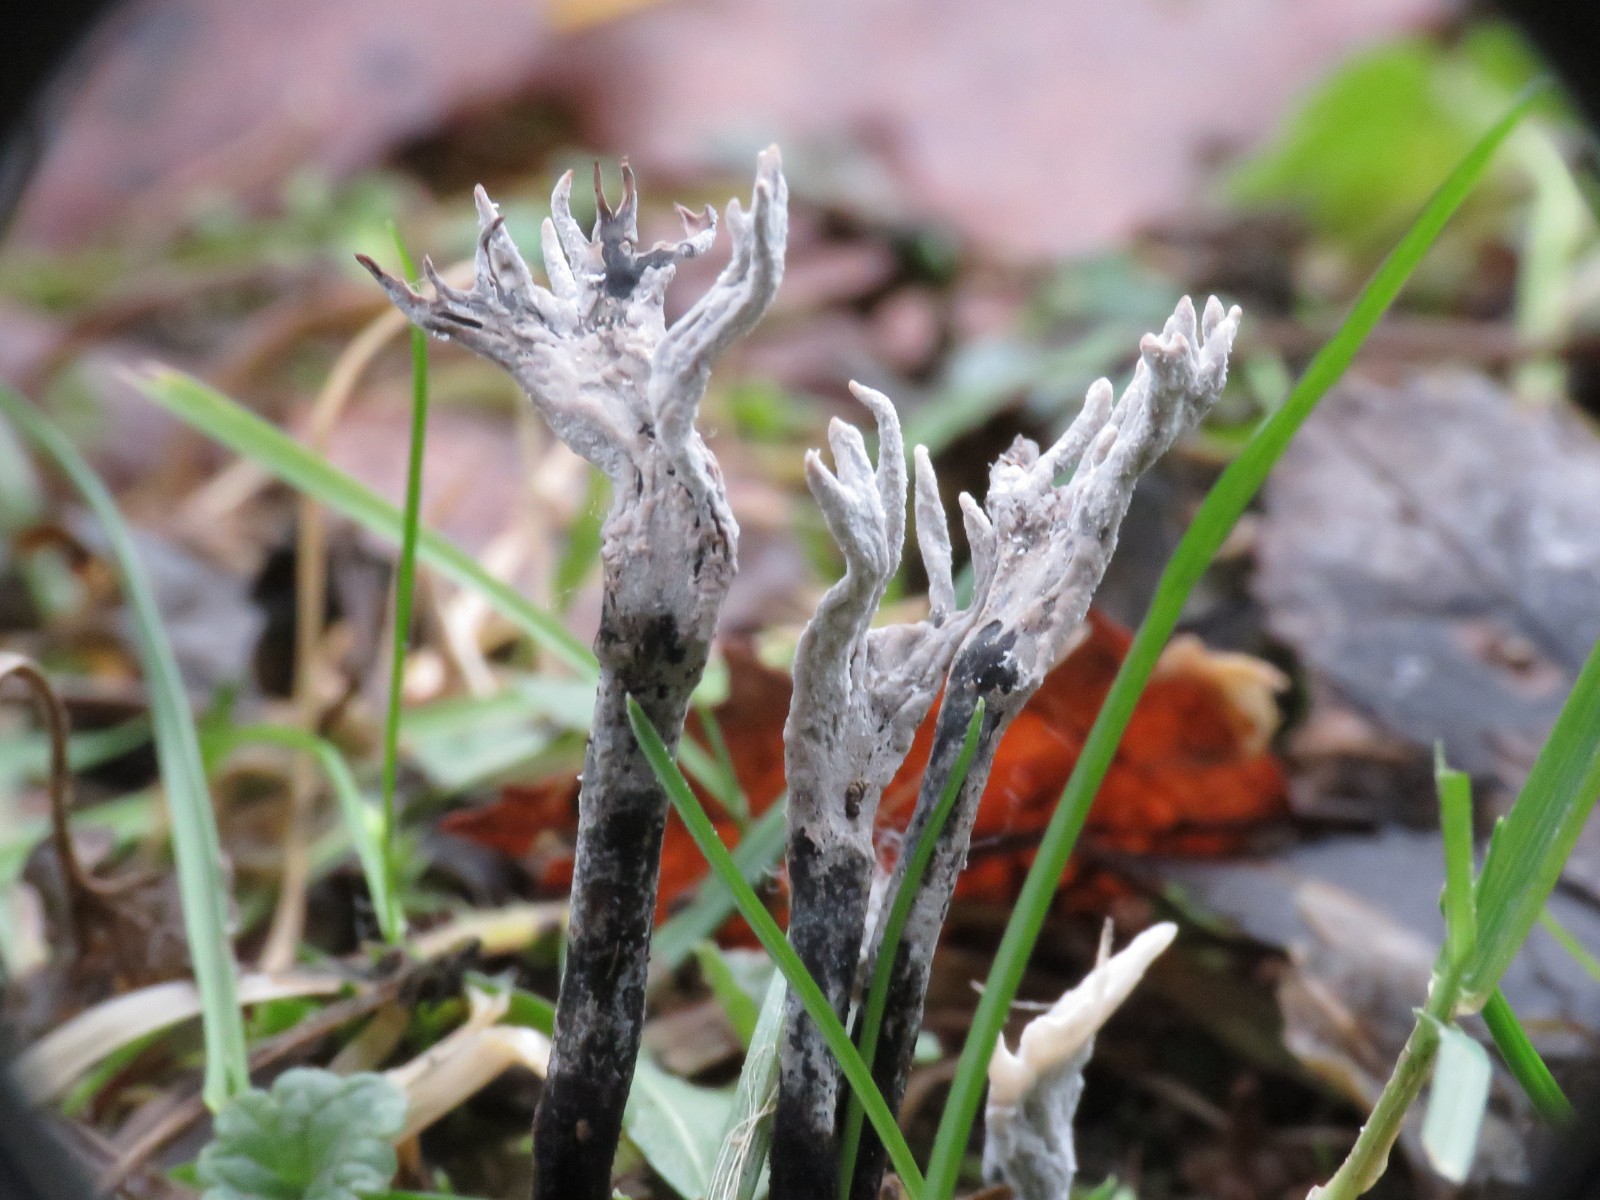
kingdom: Fungi
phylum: Ascomycota
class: Sordariomycetes
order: Xylariales
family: Xylariaceae
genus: Xylaria
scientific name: Xylaria hypoxylon
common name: grenet stødsvamp
